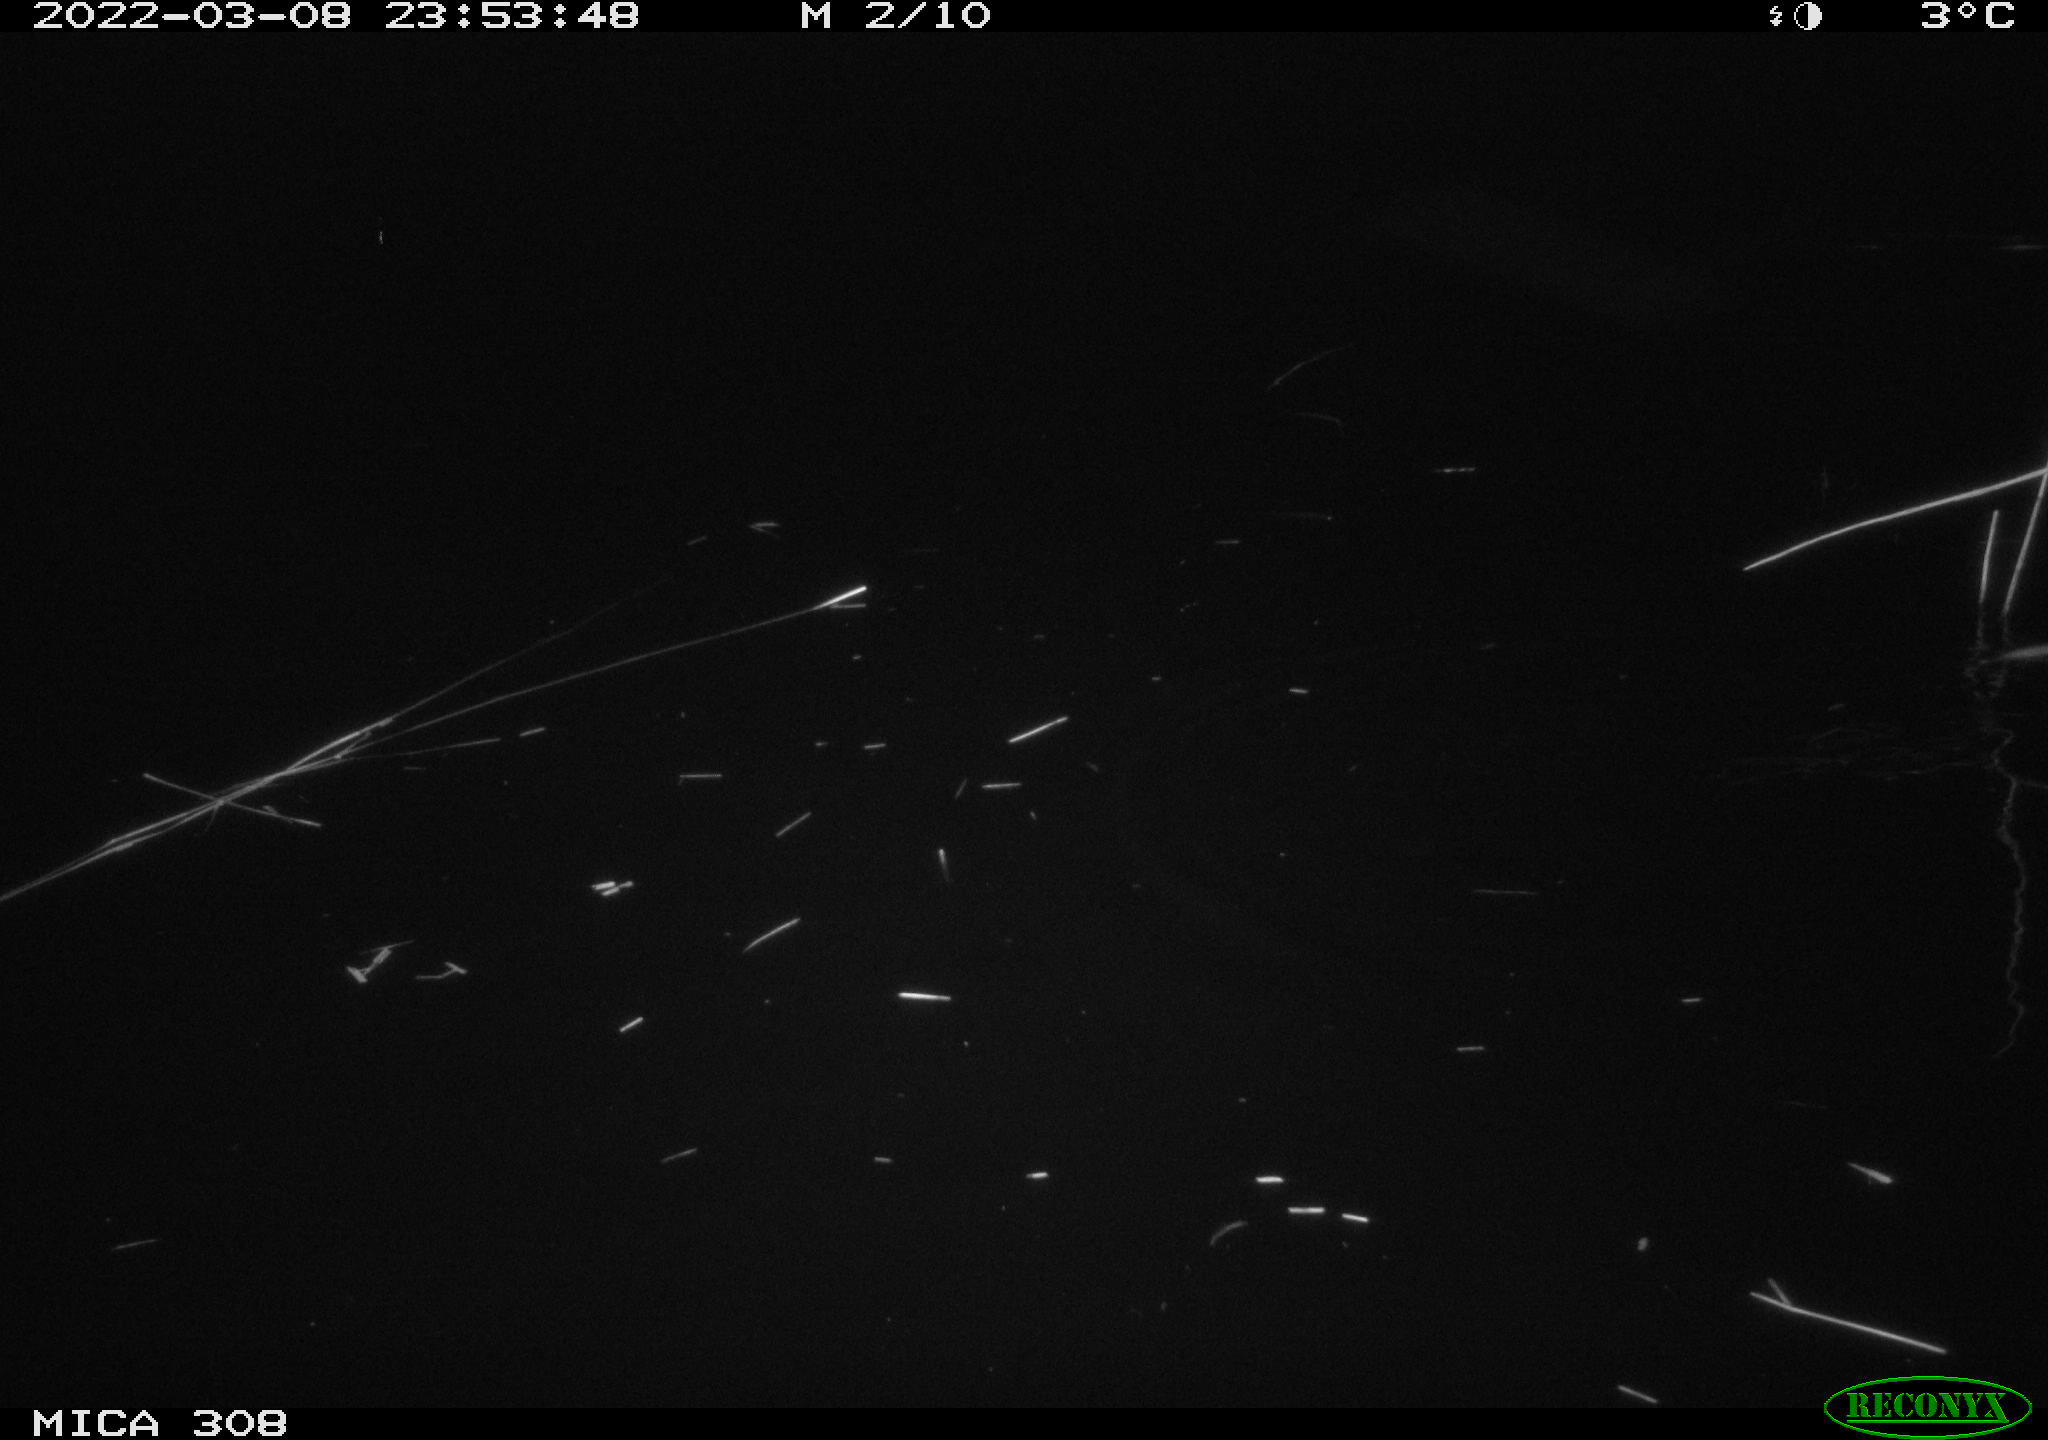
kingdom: Animalia
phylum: Chordata
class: Mammalia
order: Rodentia
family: Cricetidae
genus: Ondatra
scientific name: Ondatra zibethicus
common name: Muskrat
